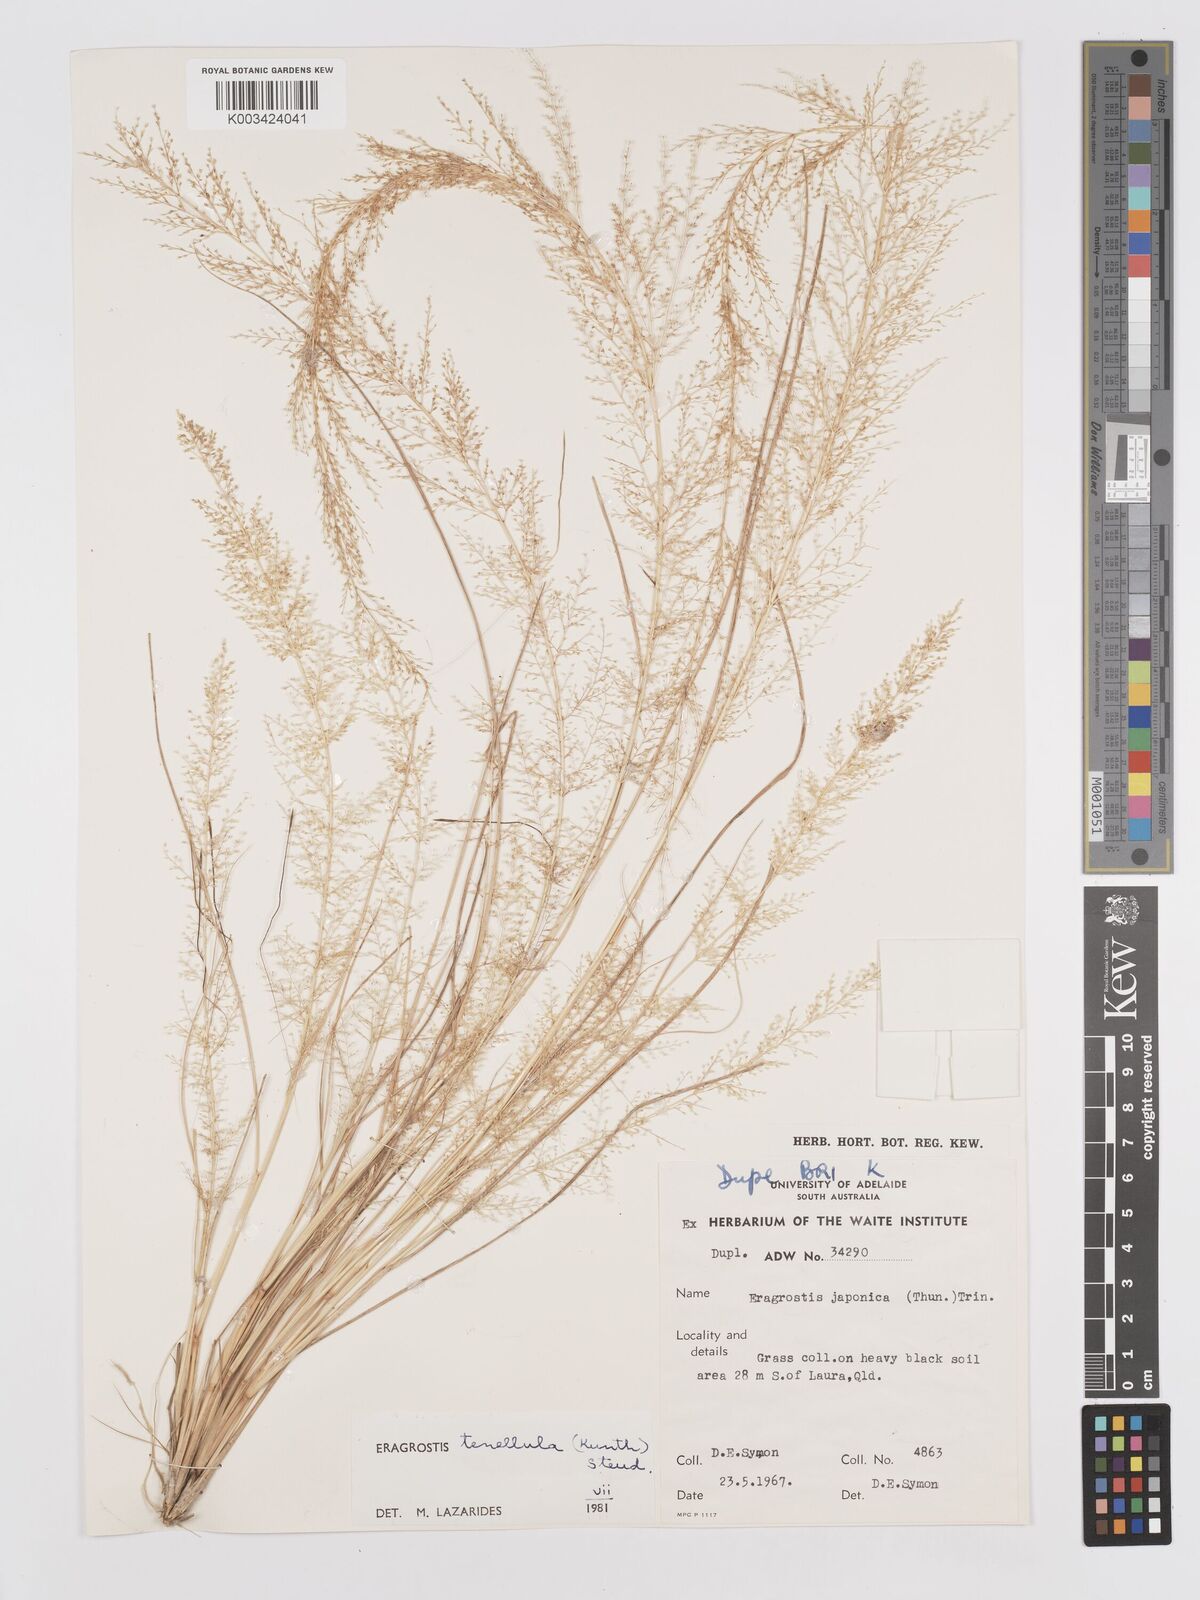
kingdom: Plantae
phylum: Tracheophyta
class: Liliopsida
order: Poales
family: Poaceae
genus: Eragrostis
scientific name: Eragrostis tenellula
